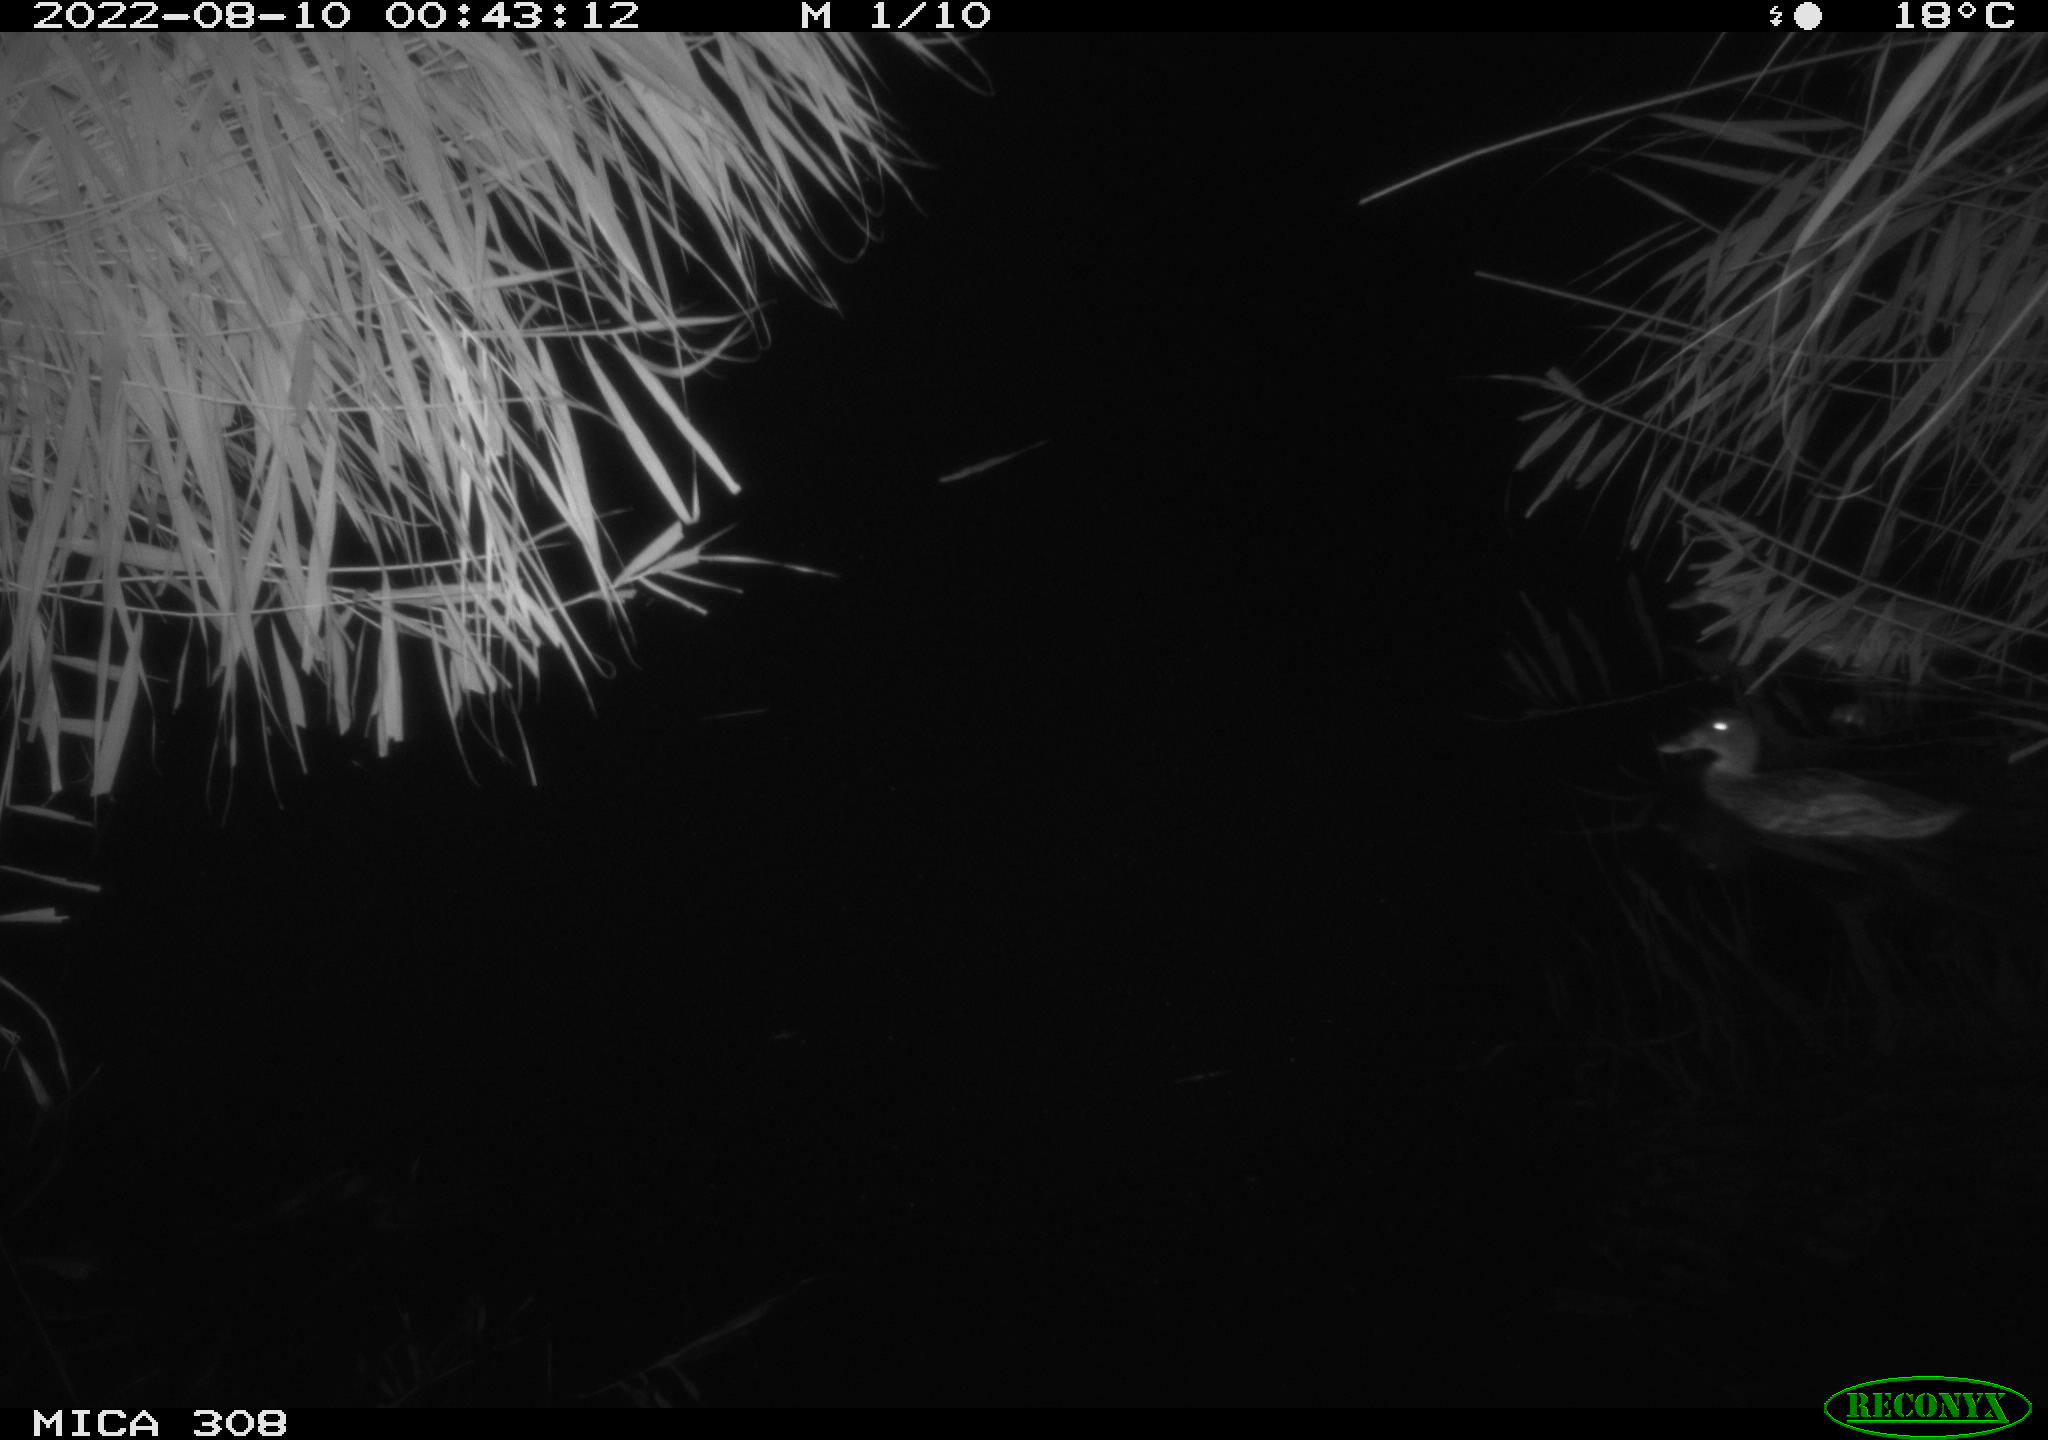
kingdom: Animalia
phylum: Chordata
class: Aves
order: Anseriformes
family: Anatidae
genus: Anas
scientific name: Anas platyrhynchos
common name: Mallard
